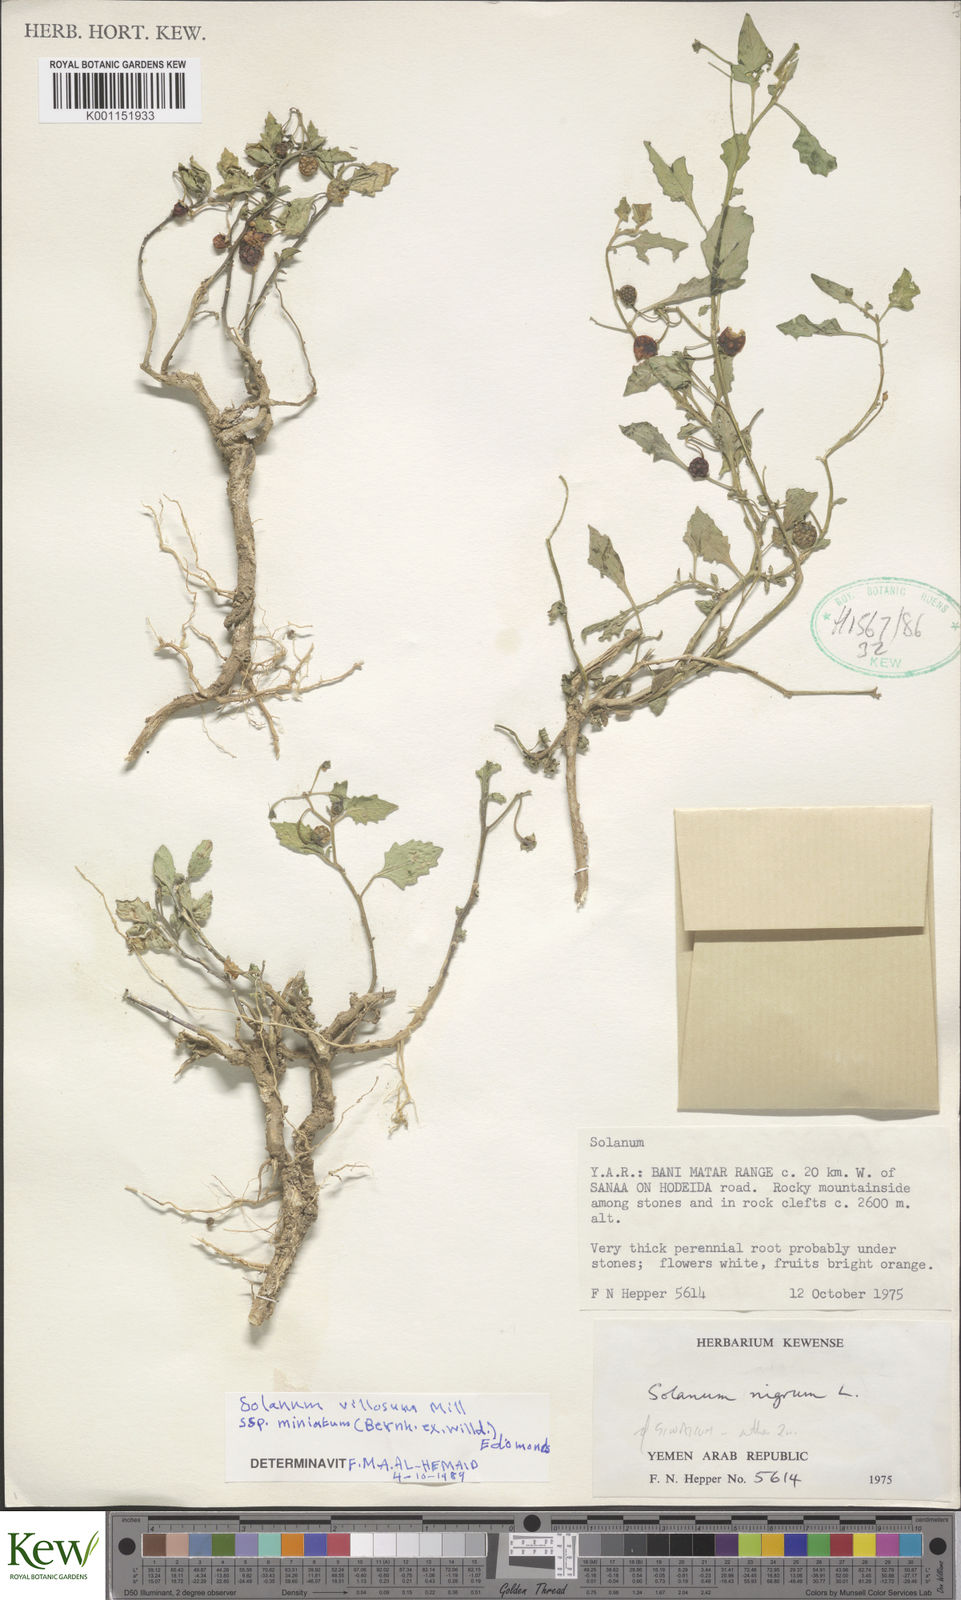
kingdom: Plantae
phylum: Tracheophyta
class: Magnoliopsida
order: Solanales
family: Solanaceae
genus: Solanum
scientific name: Solanum villosum
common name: Red nightshade
